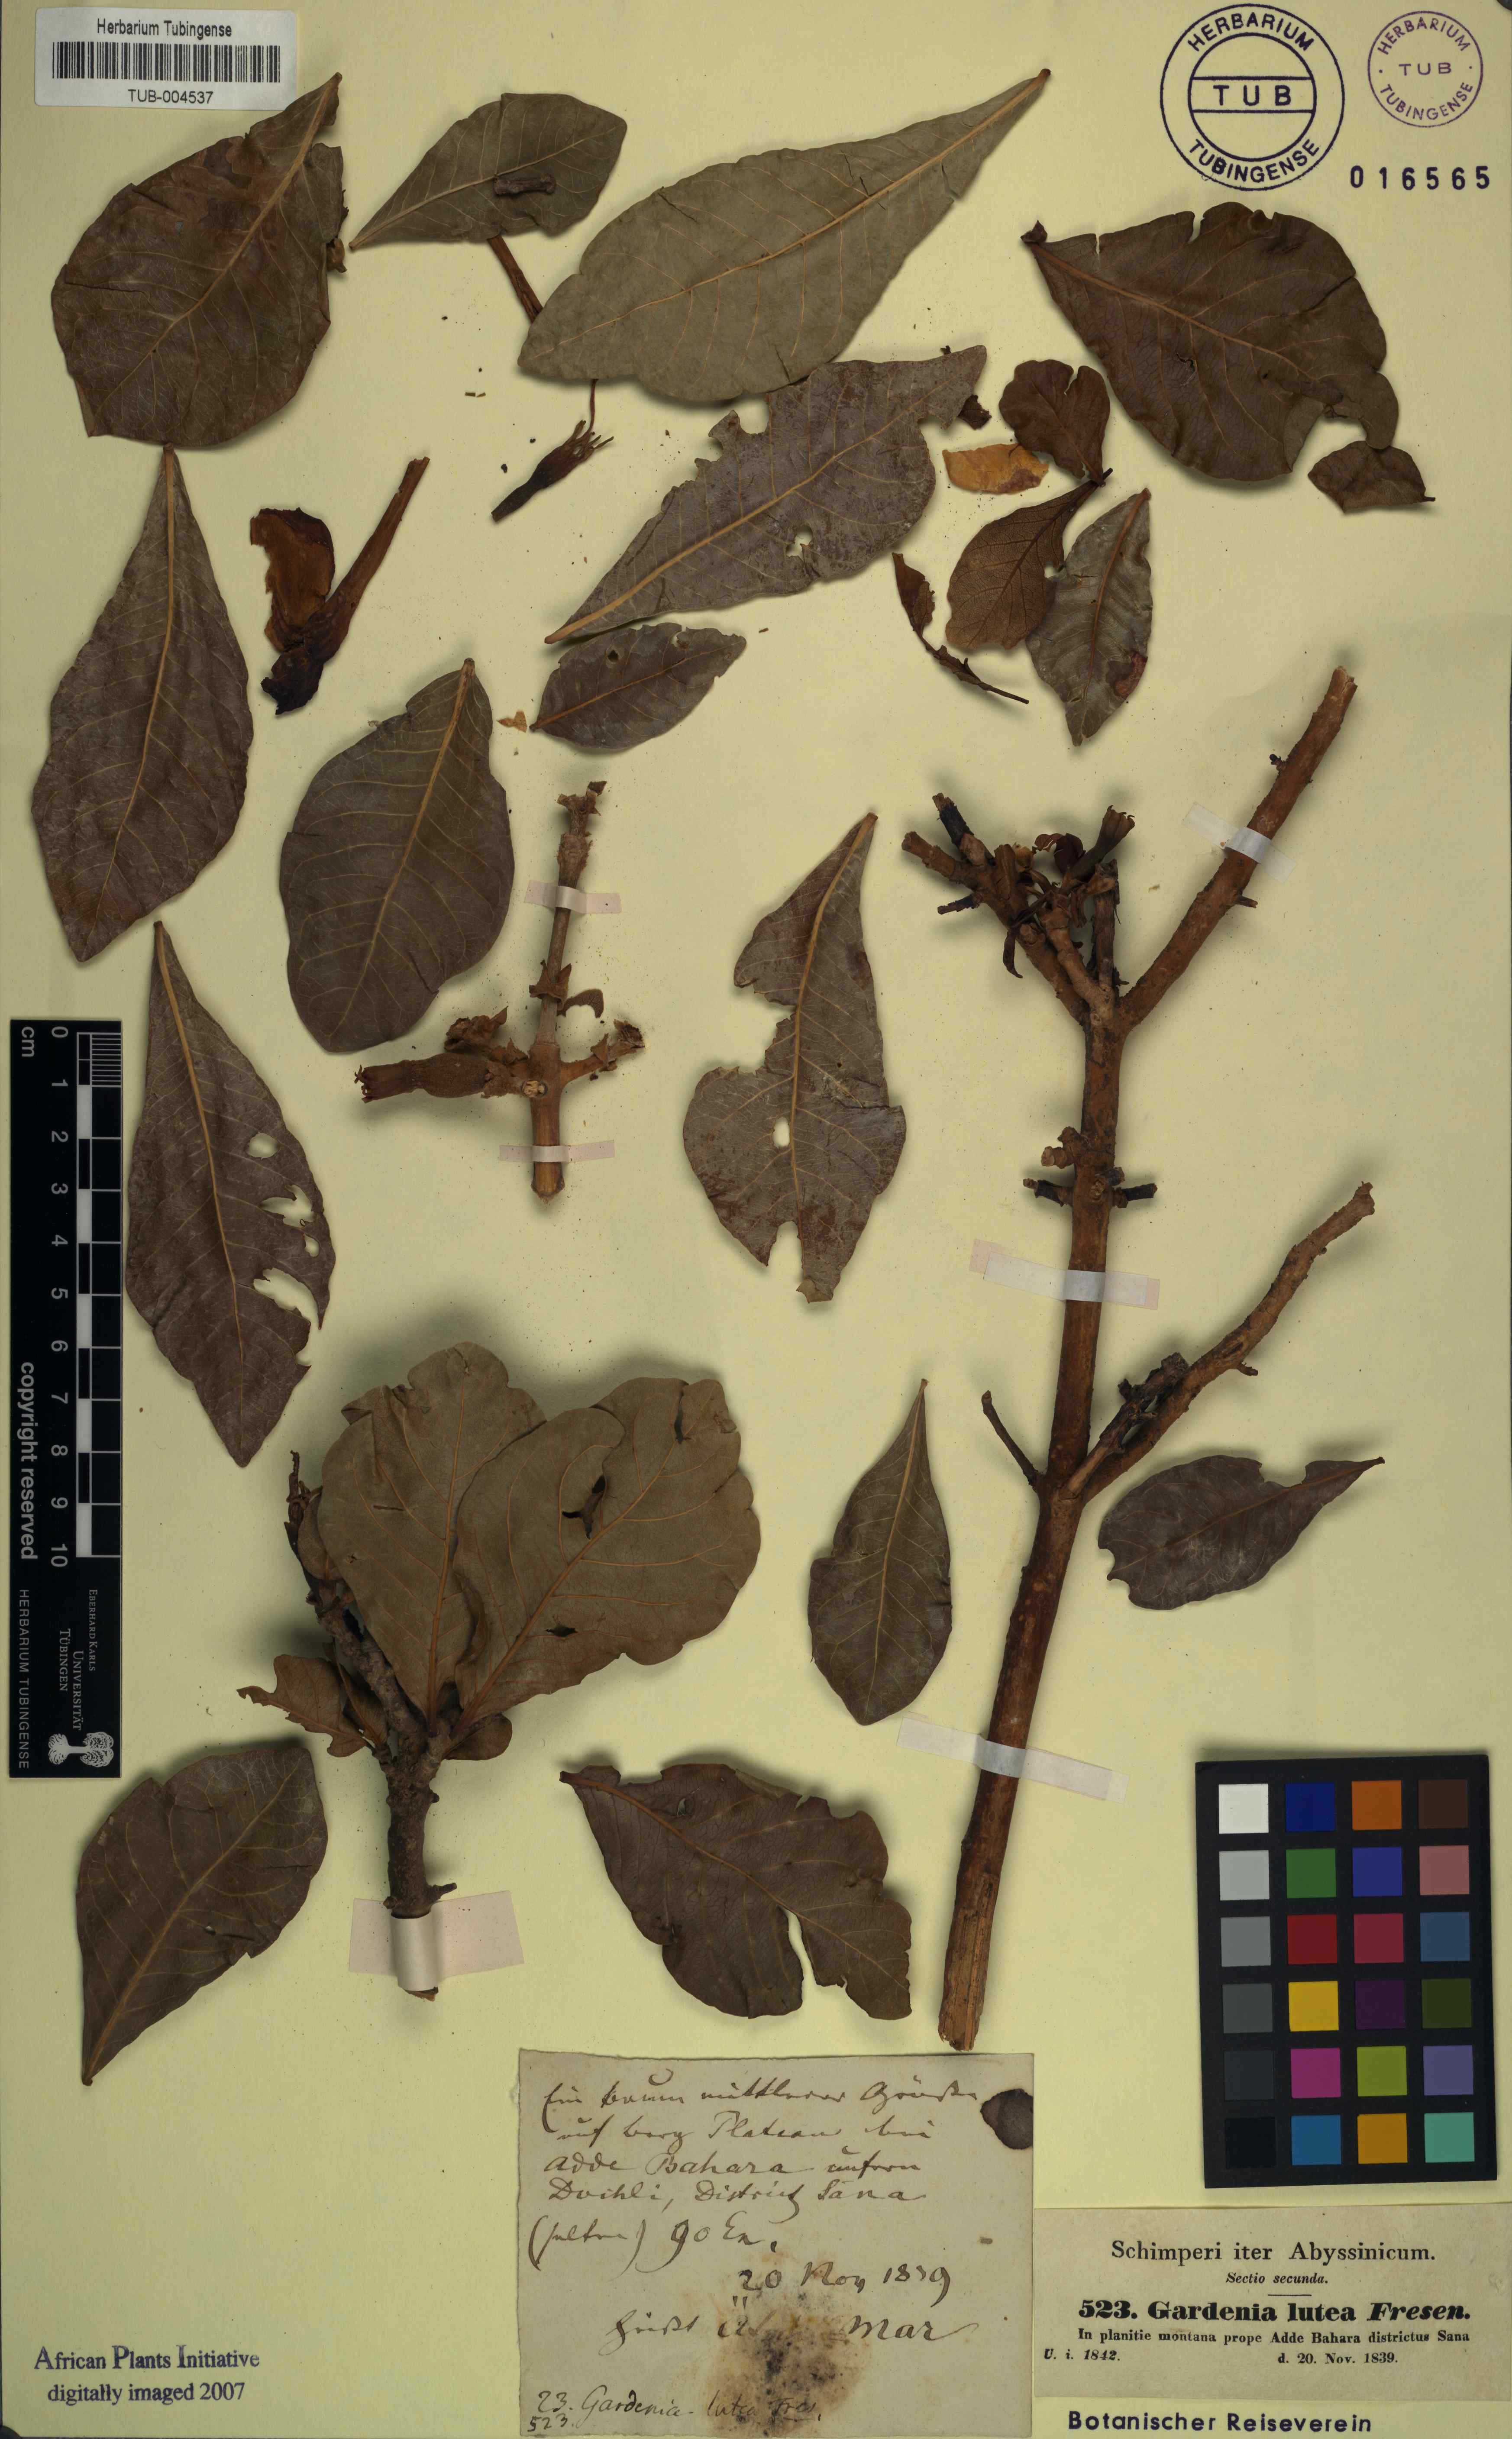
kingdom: Plantae
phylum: Tracheophyta
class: Magnoliopsida
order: Gentianales
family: Rubiaceae
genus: Gardenia
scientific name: Gardenia ternifolia
